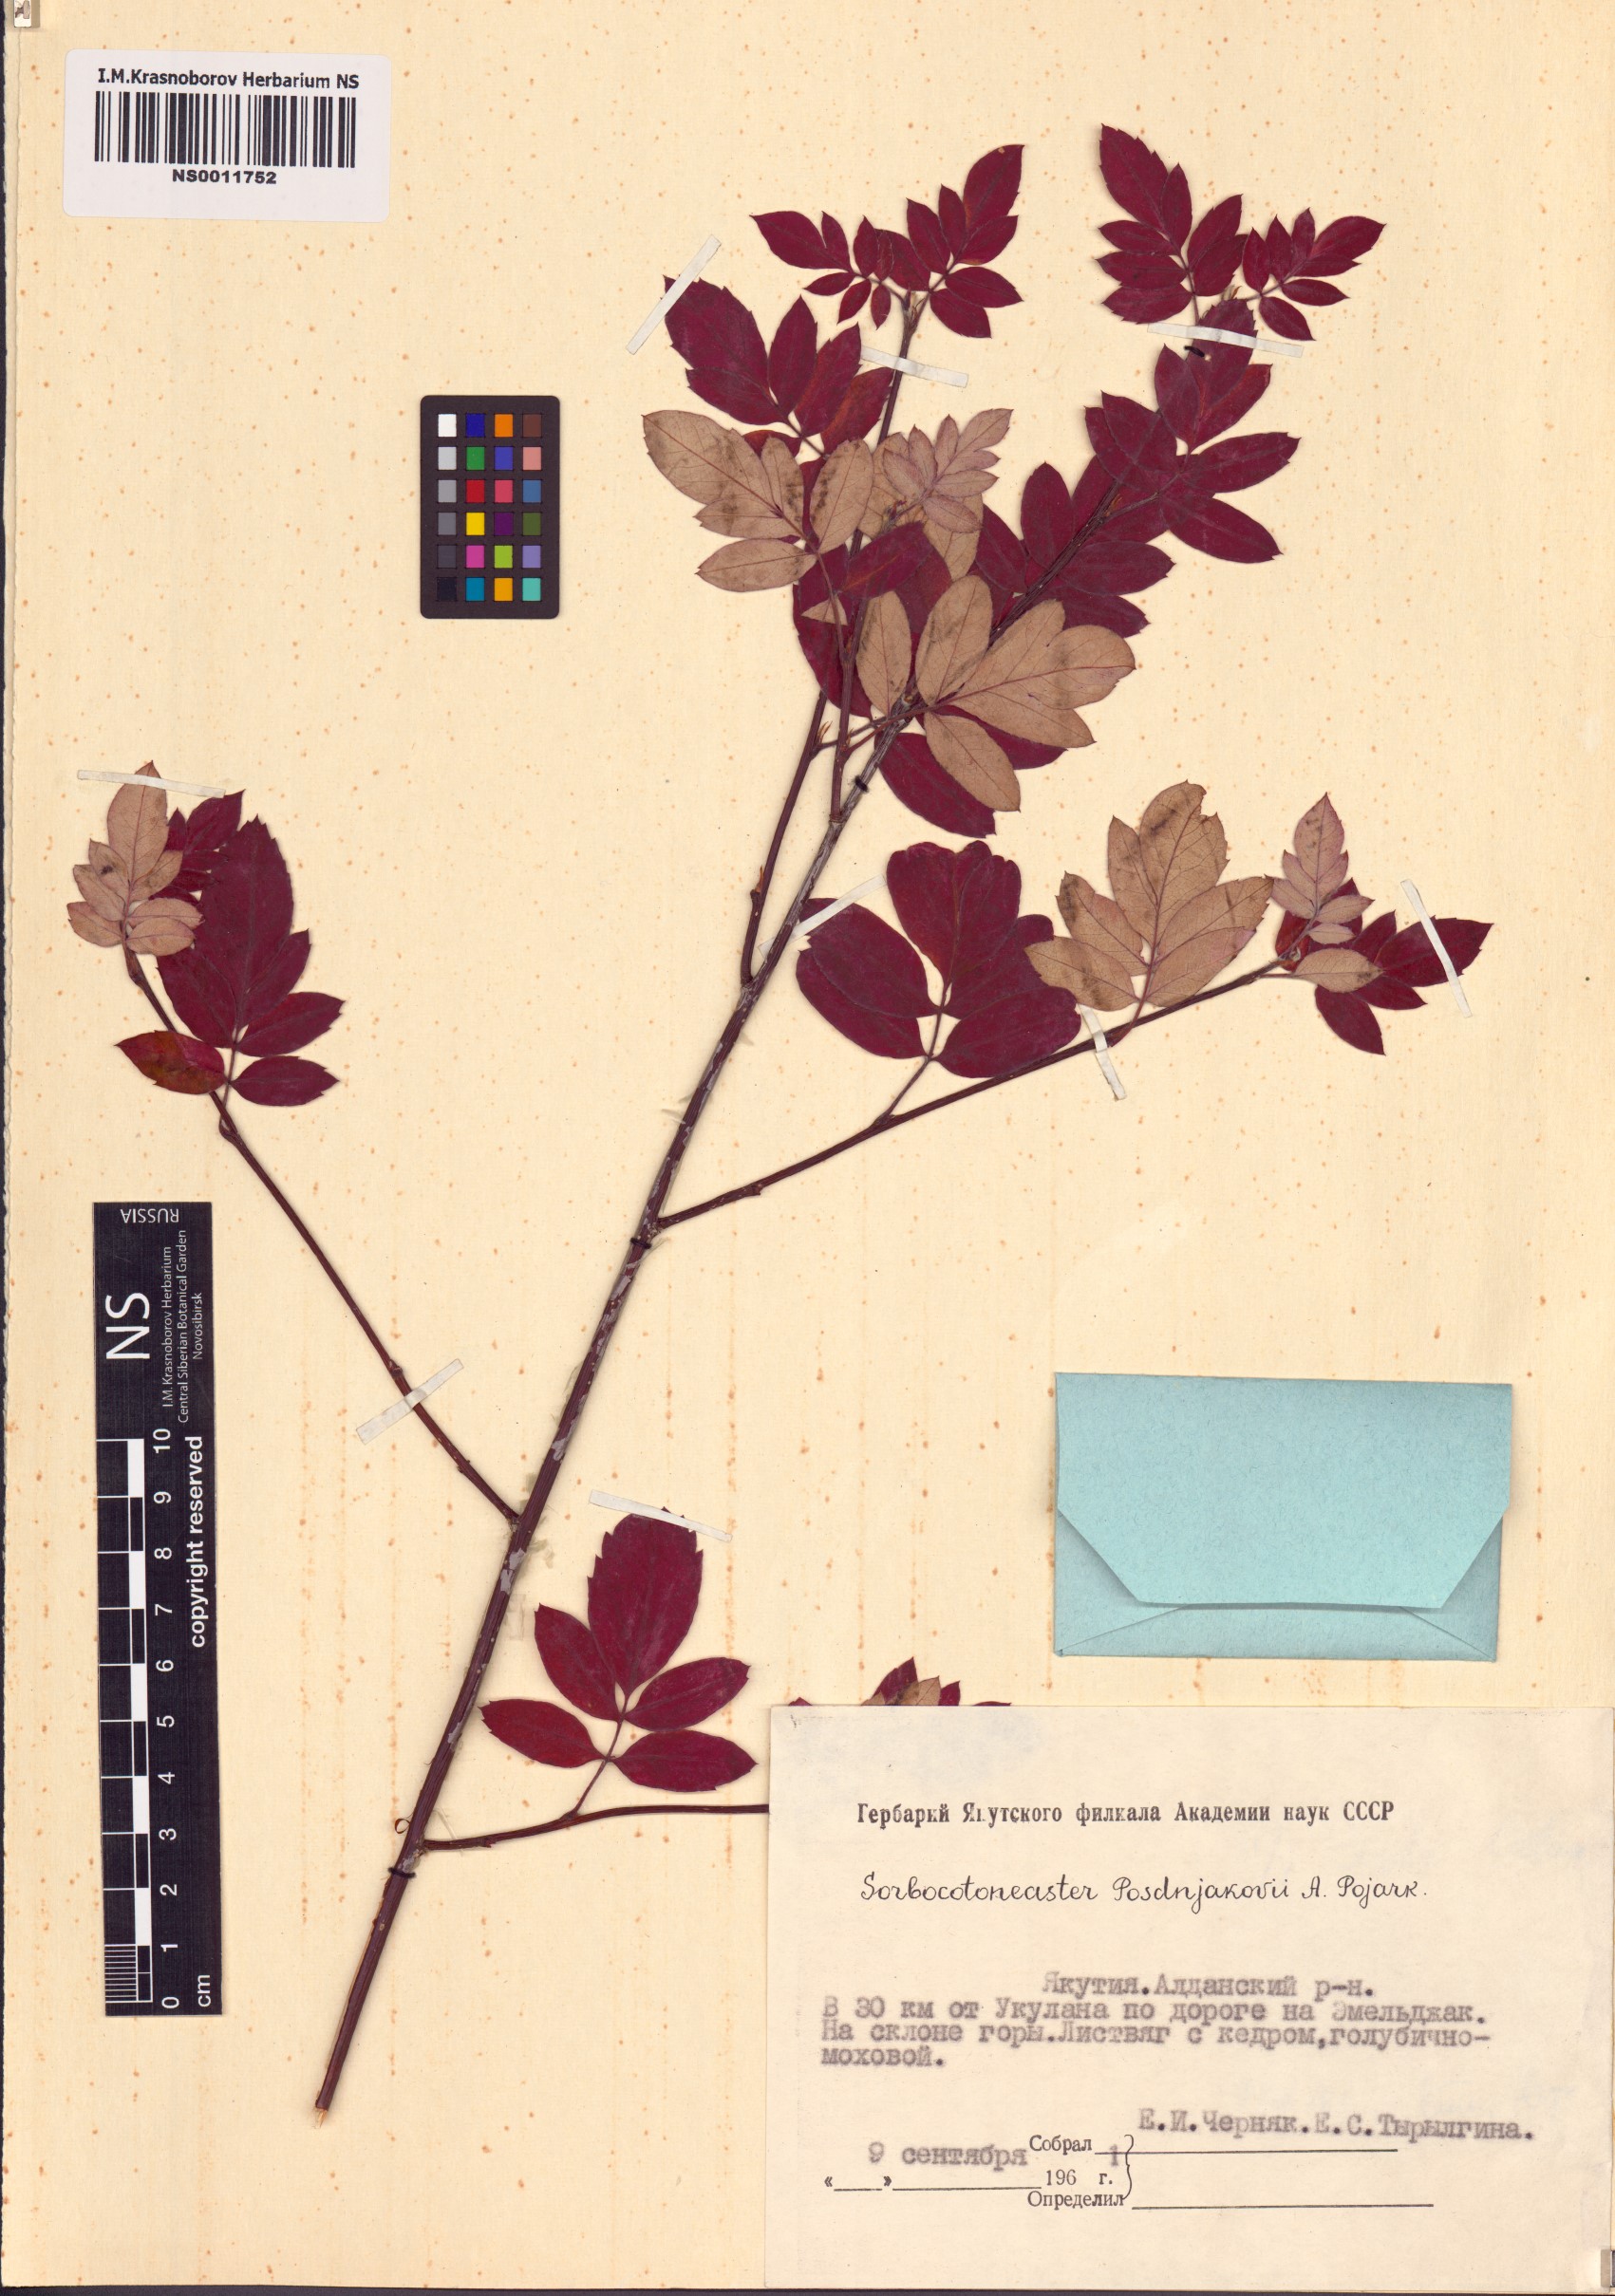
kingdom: Plantae
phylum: Tracheophyta
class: Magnoliopsida
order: Rosales
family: Rosaceae
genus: Sorbocotoneaster
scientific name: Sorbocotoneaster pozdnjakovii
